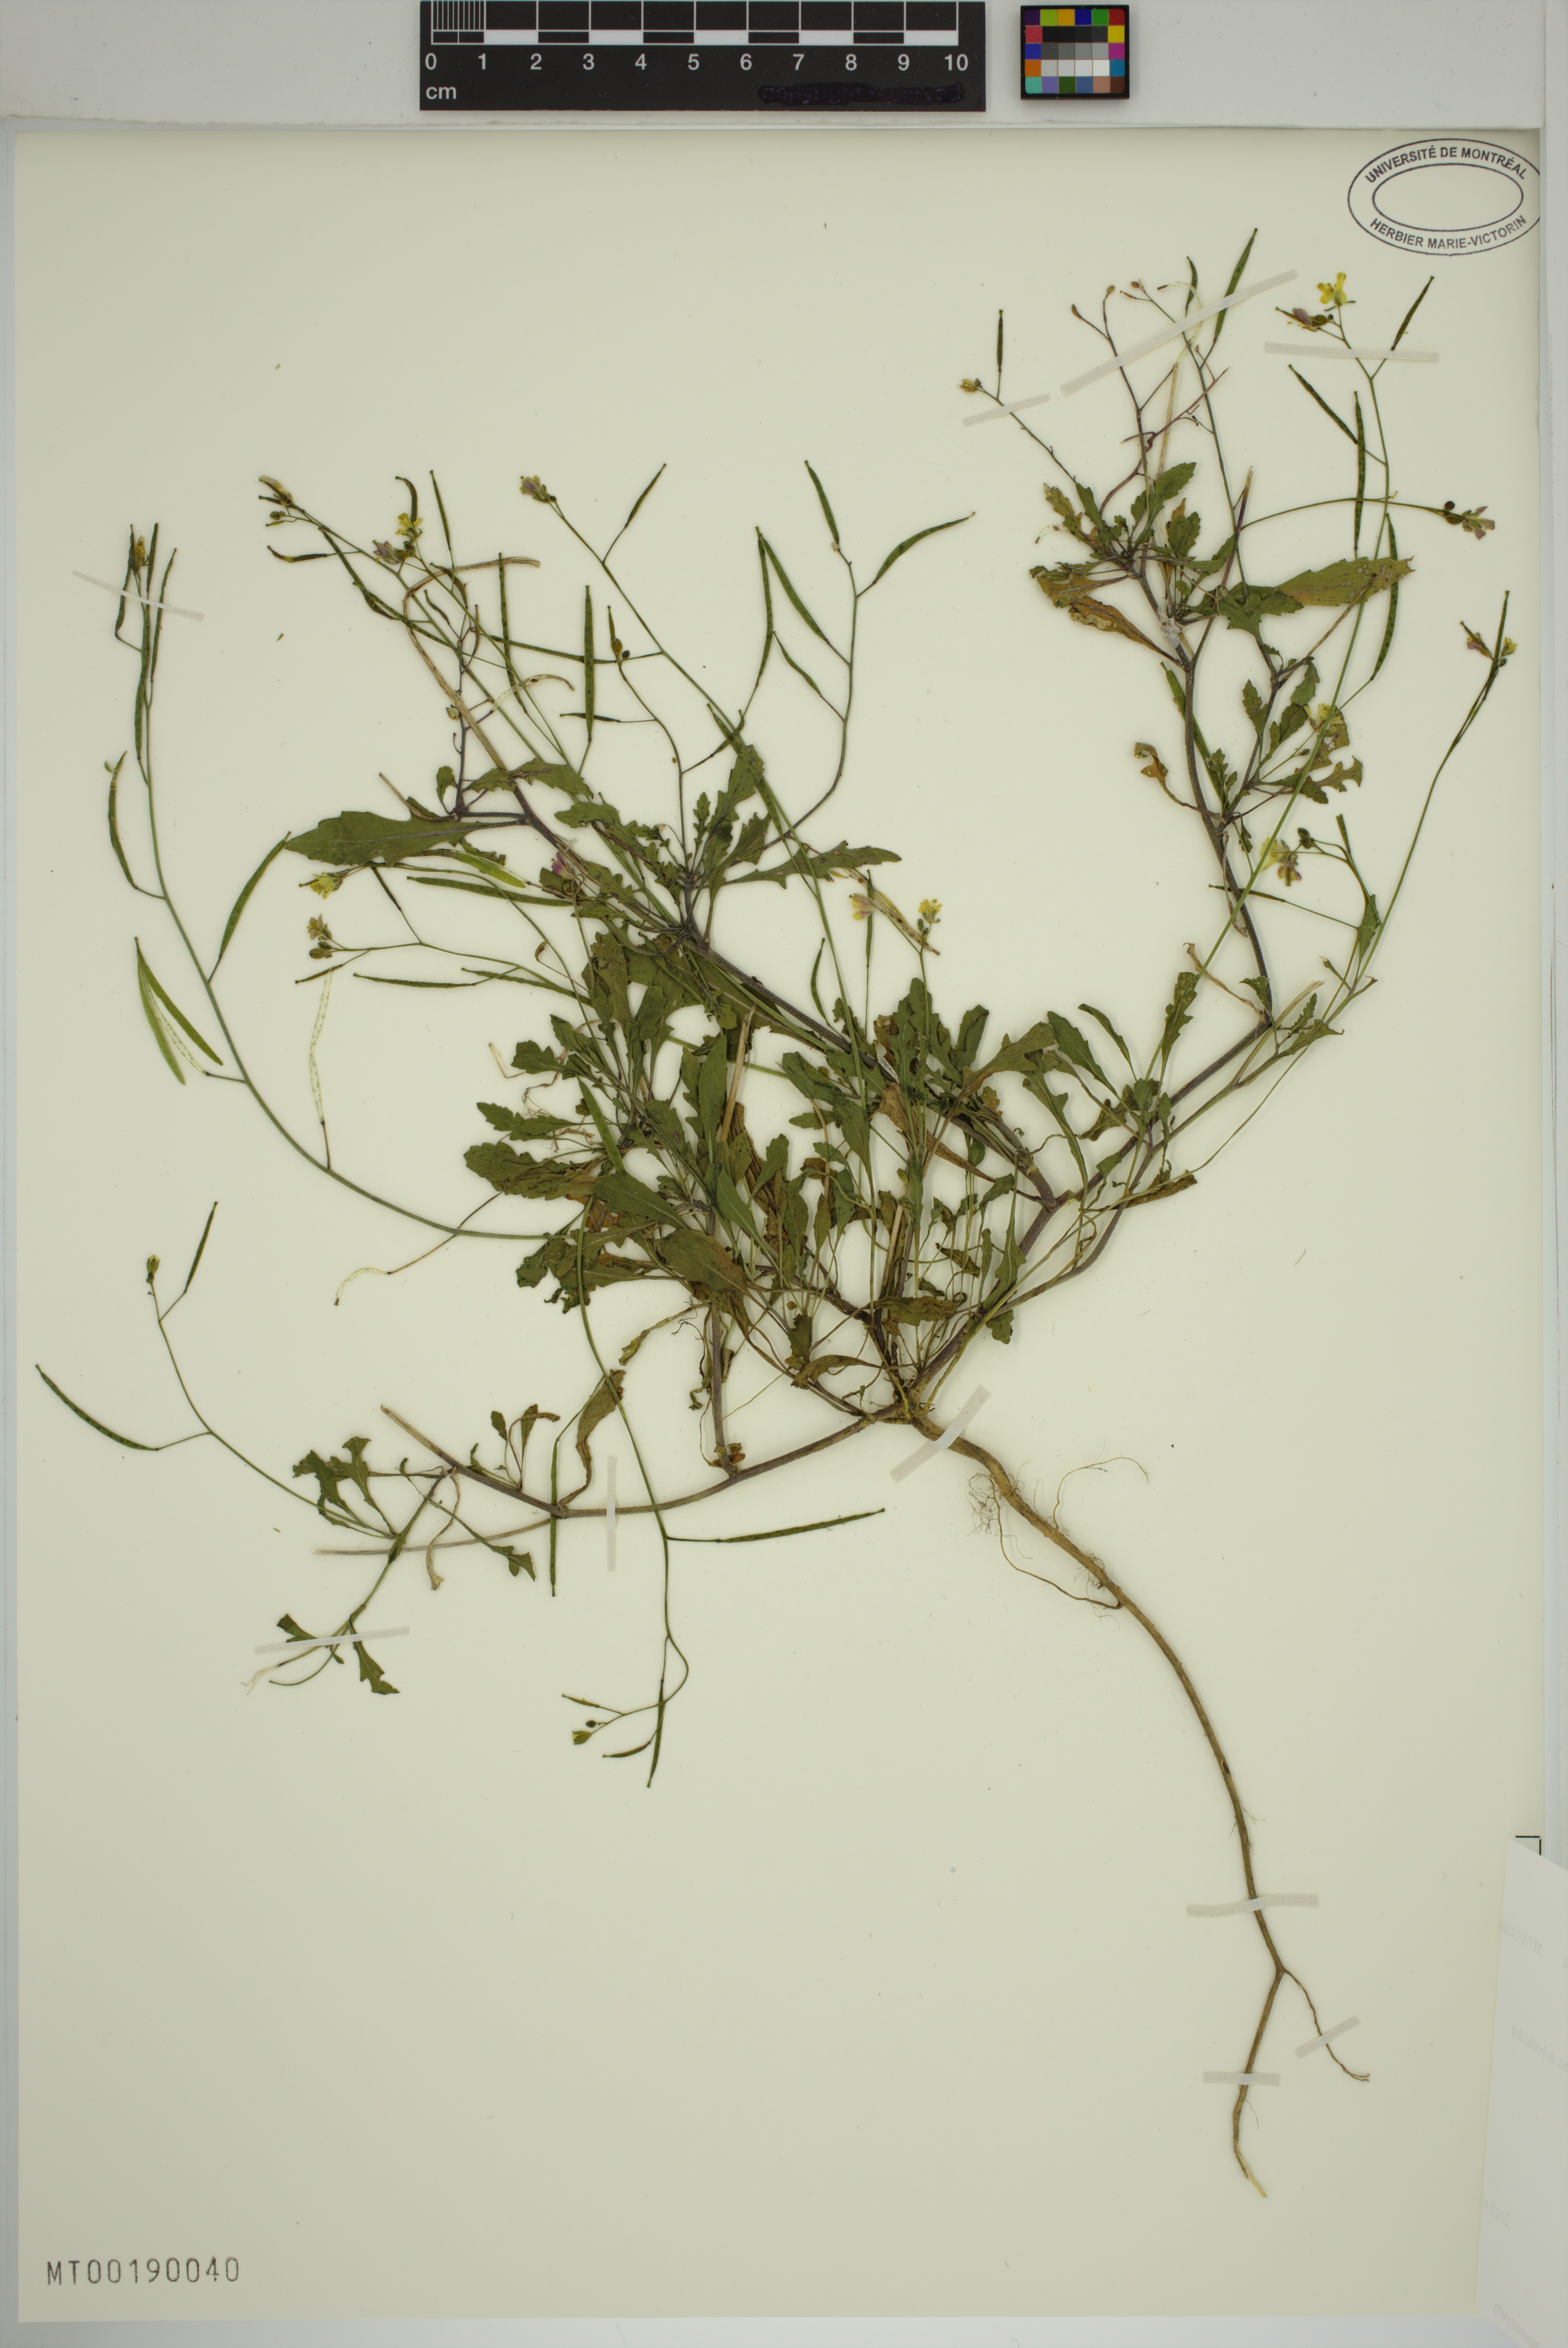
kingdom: Plantae
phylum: Tracheophyta
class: Magnoliopsida
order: Brassicales
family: Brassicaceae
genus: Diplotaxis
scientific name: Diplotaxis muralis
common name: Annual wall-rocket
